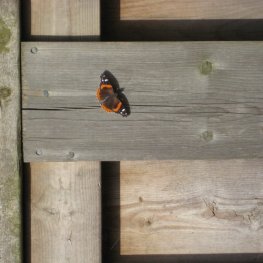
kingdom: Animalia
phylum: Arthropoda
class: Insecta
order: Lepidoptera
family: Nymphalidae
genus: Vanessa
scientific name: Vanessa atalanta
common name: Red Admiral
